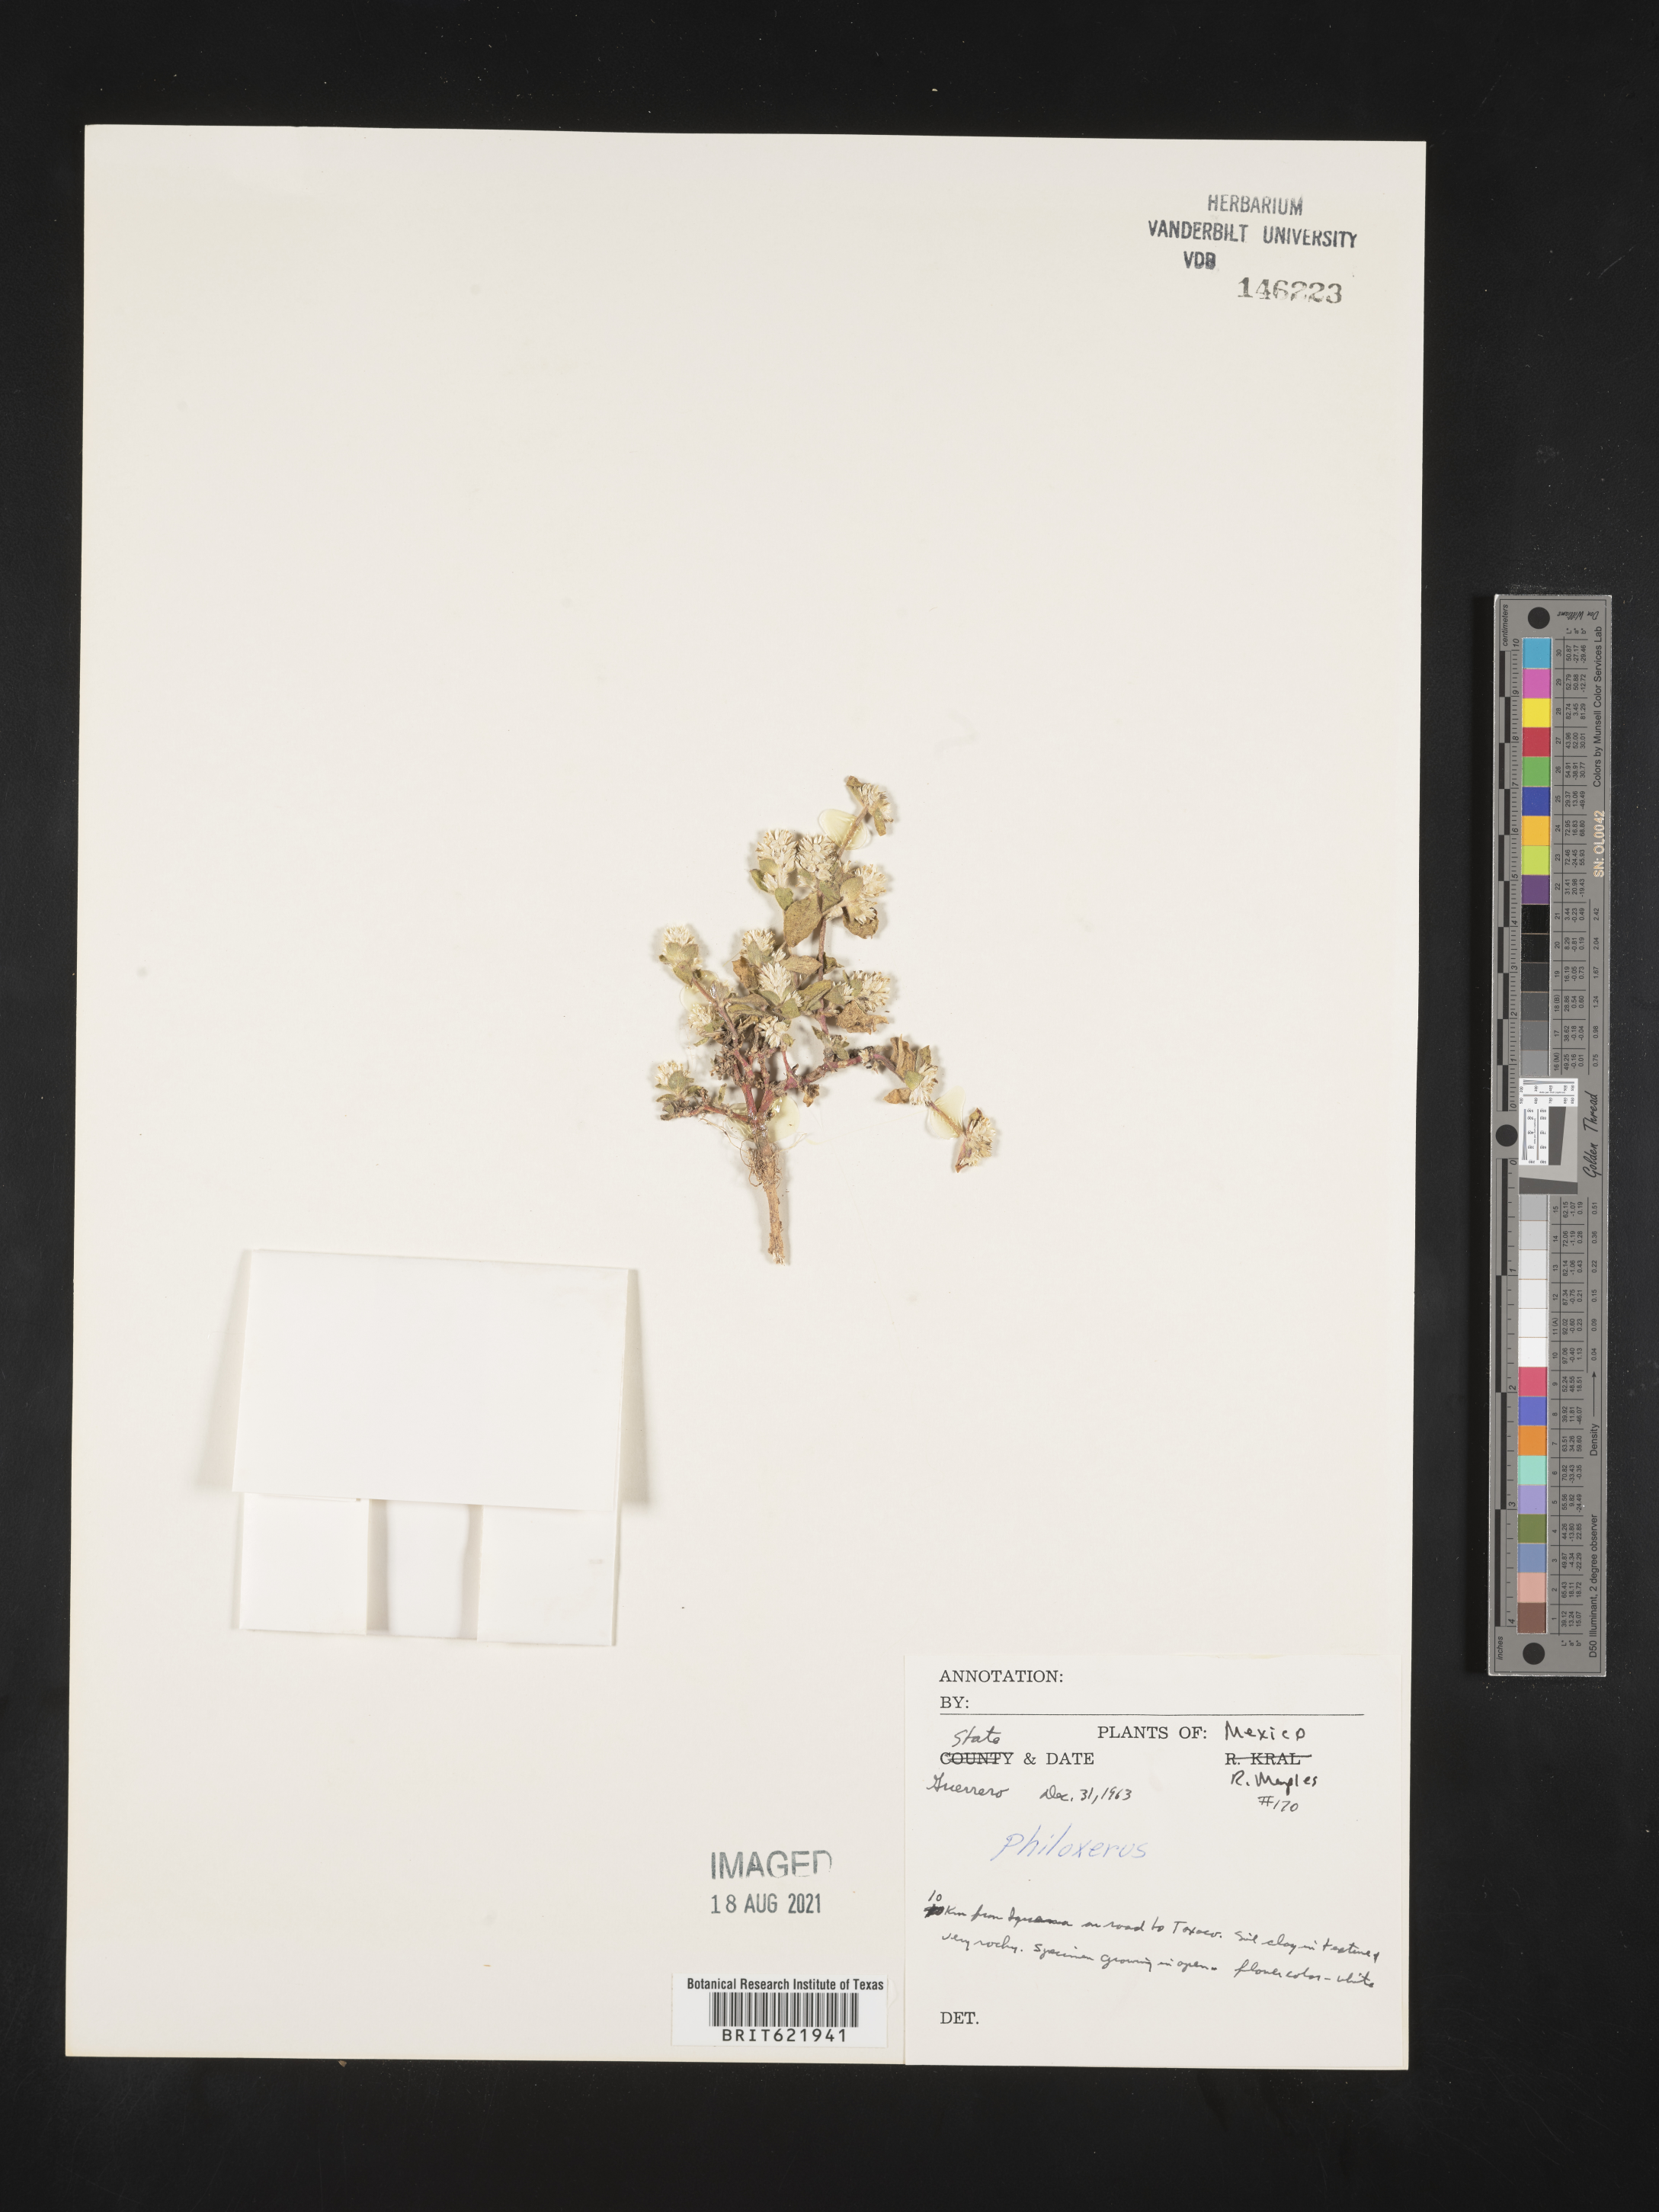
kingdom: Plantae
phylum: Tracheophyta
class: Magnoliopsida
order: Caryophyllales
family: Amaranthaceae
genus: Gomphrena
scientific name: Gomphrena
